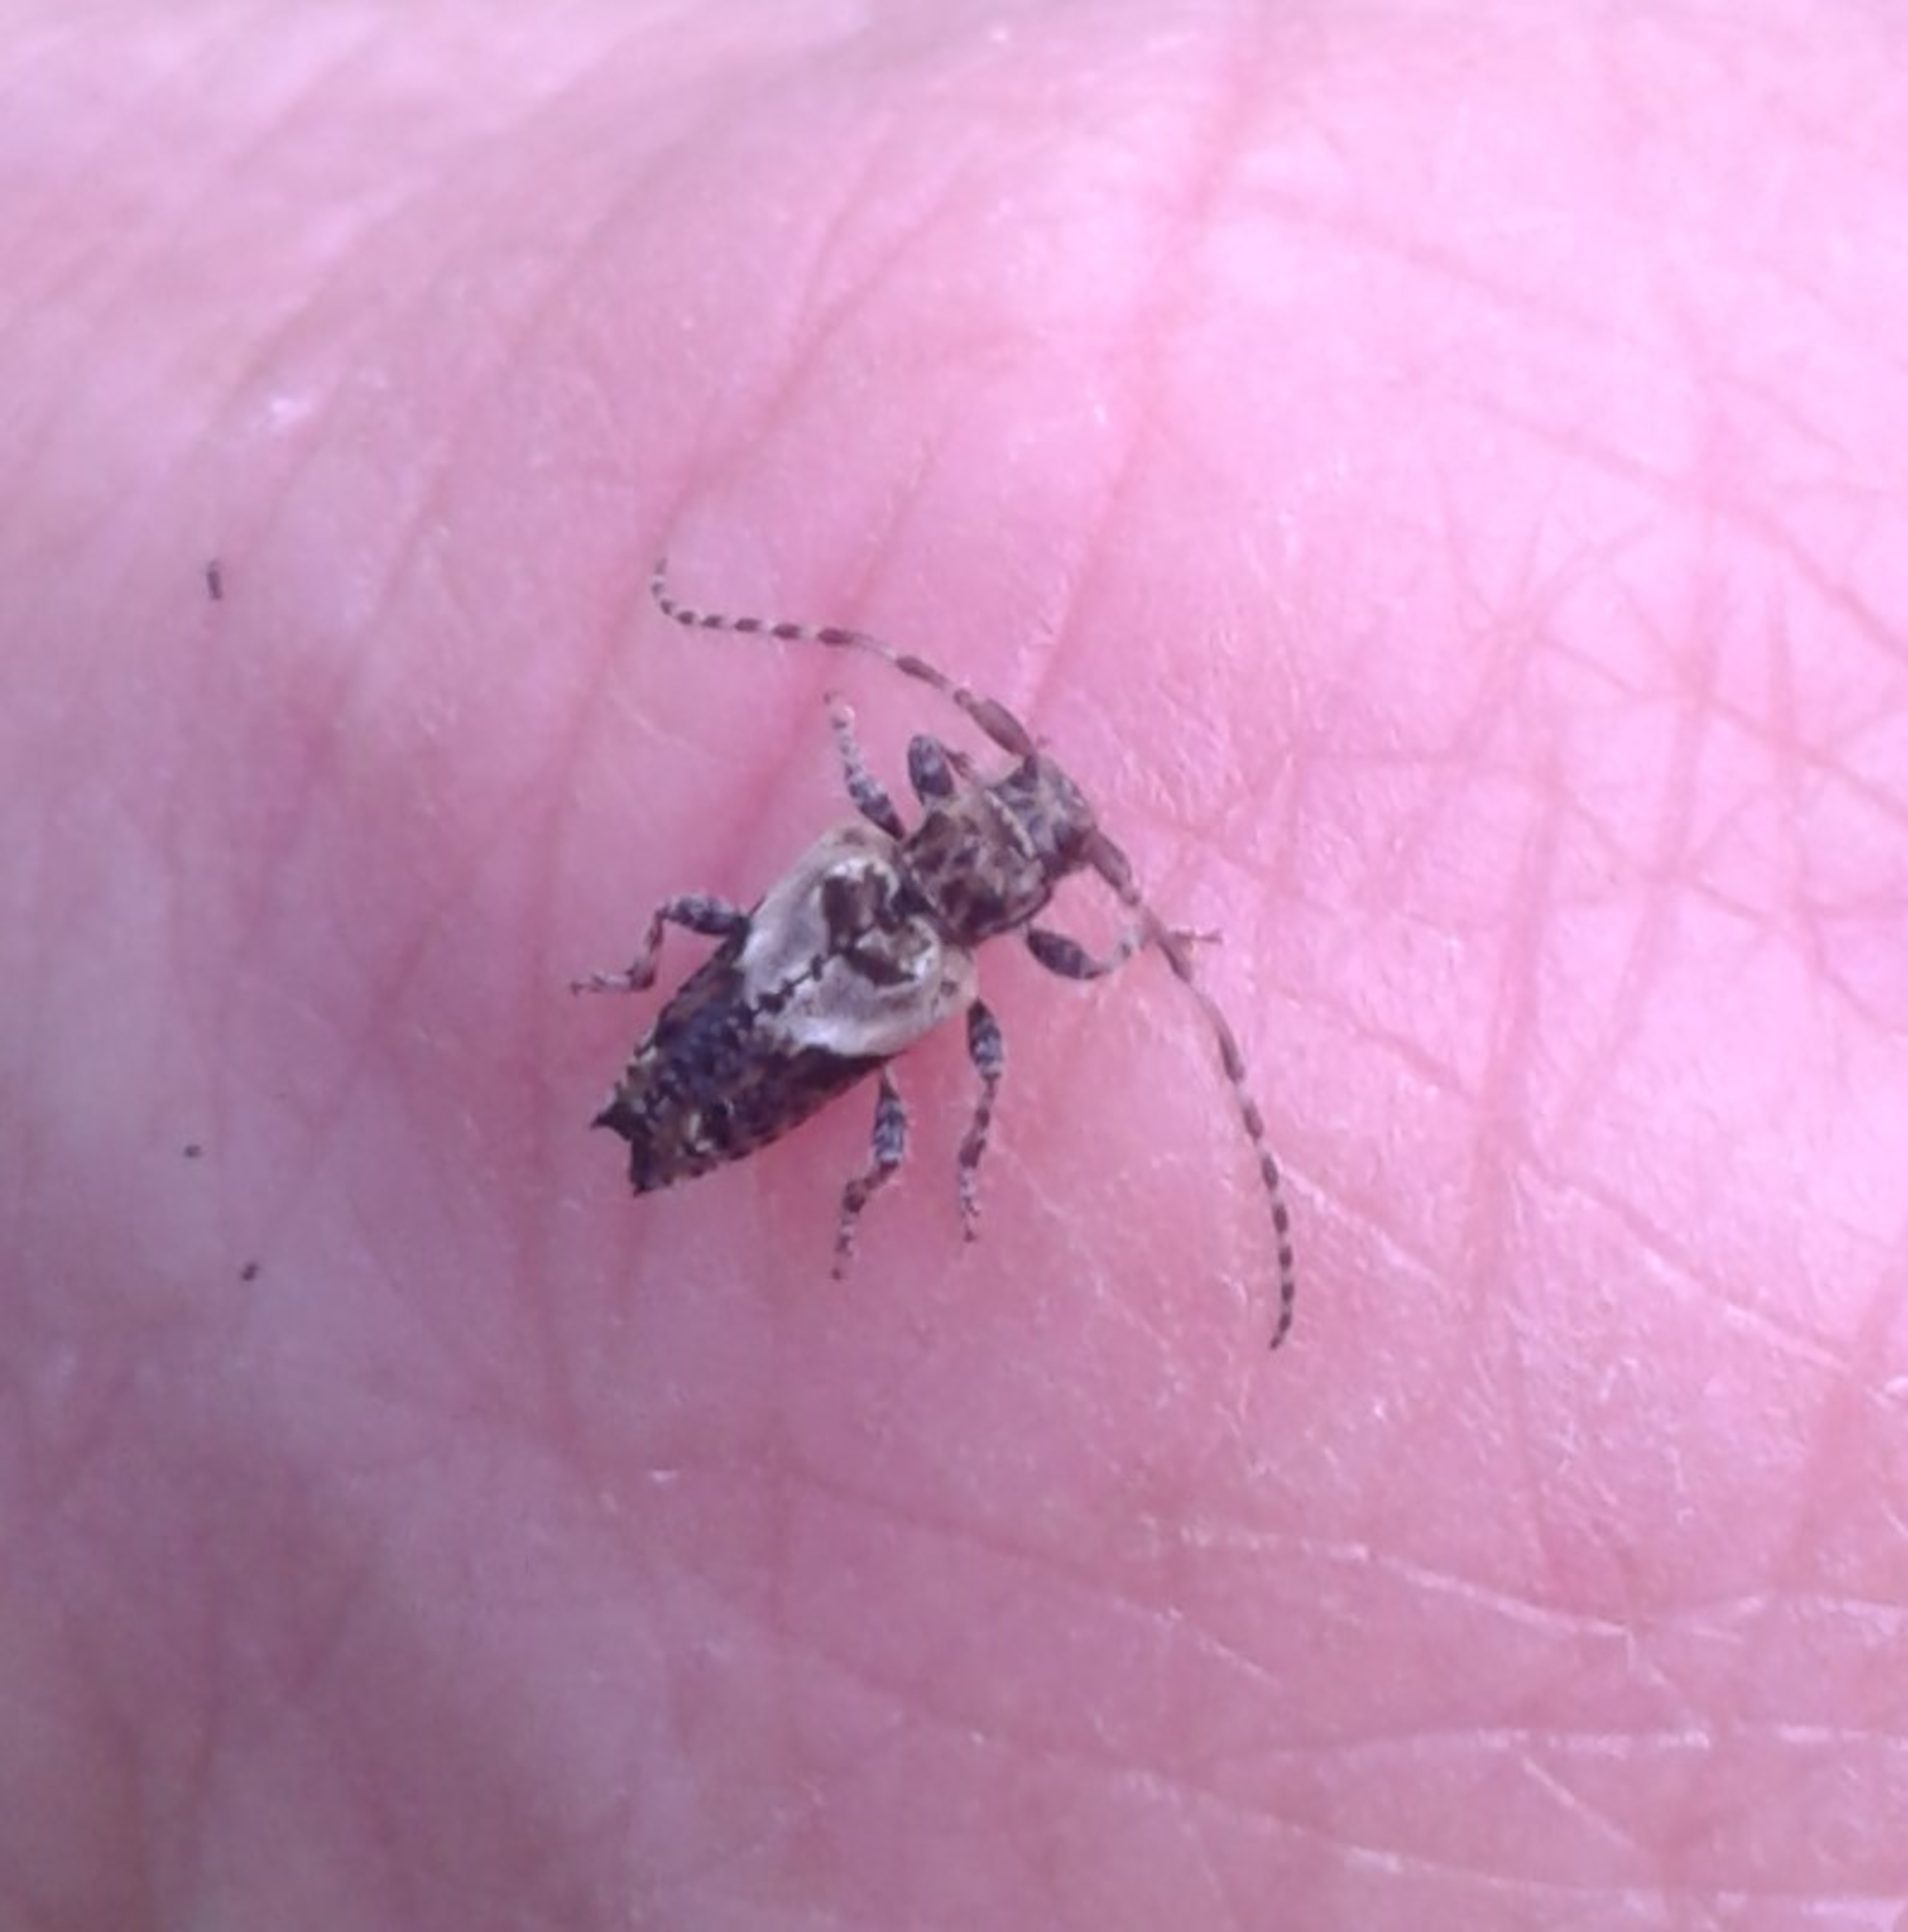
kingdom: Animalia
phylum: Arthropoda
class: Insecta
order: Coleoptera
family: Cerambycidae
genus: Pogonocherus
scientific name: Pogonocherus hispidus
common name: Løvgråbuk
